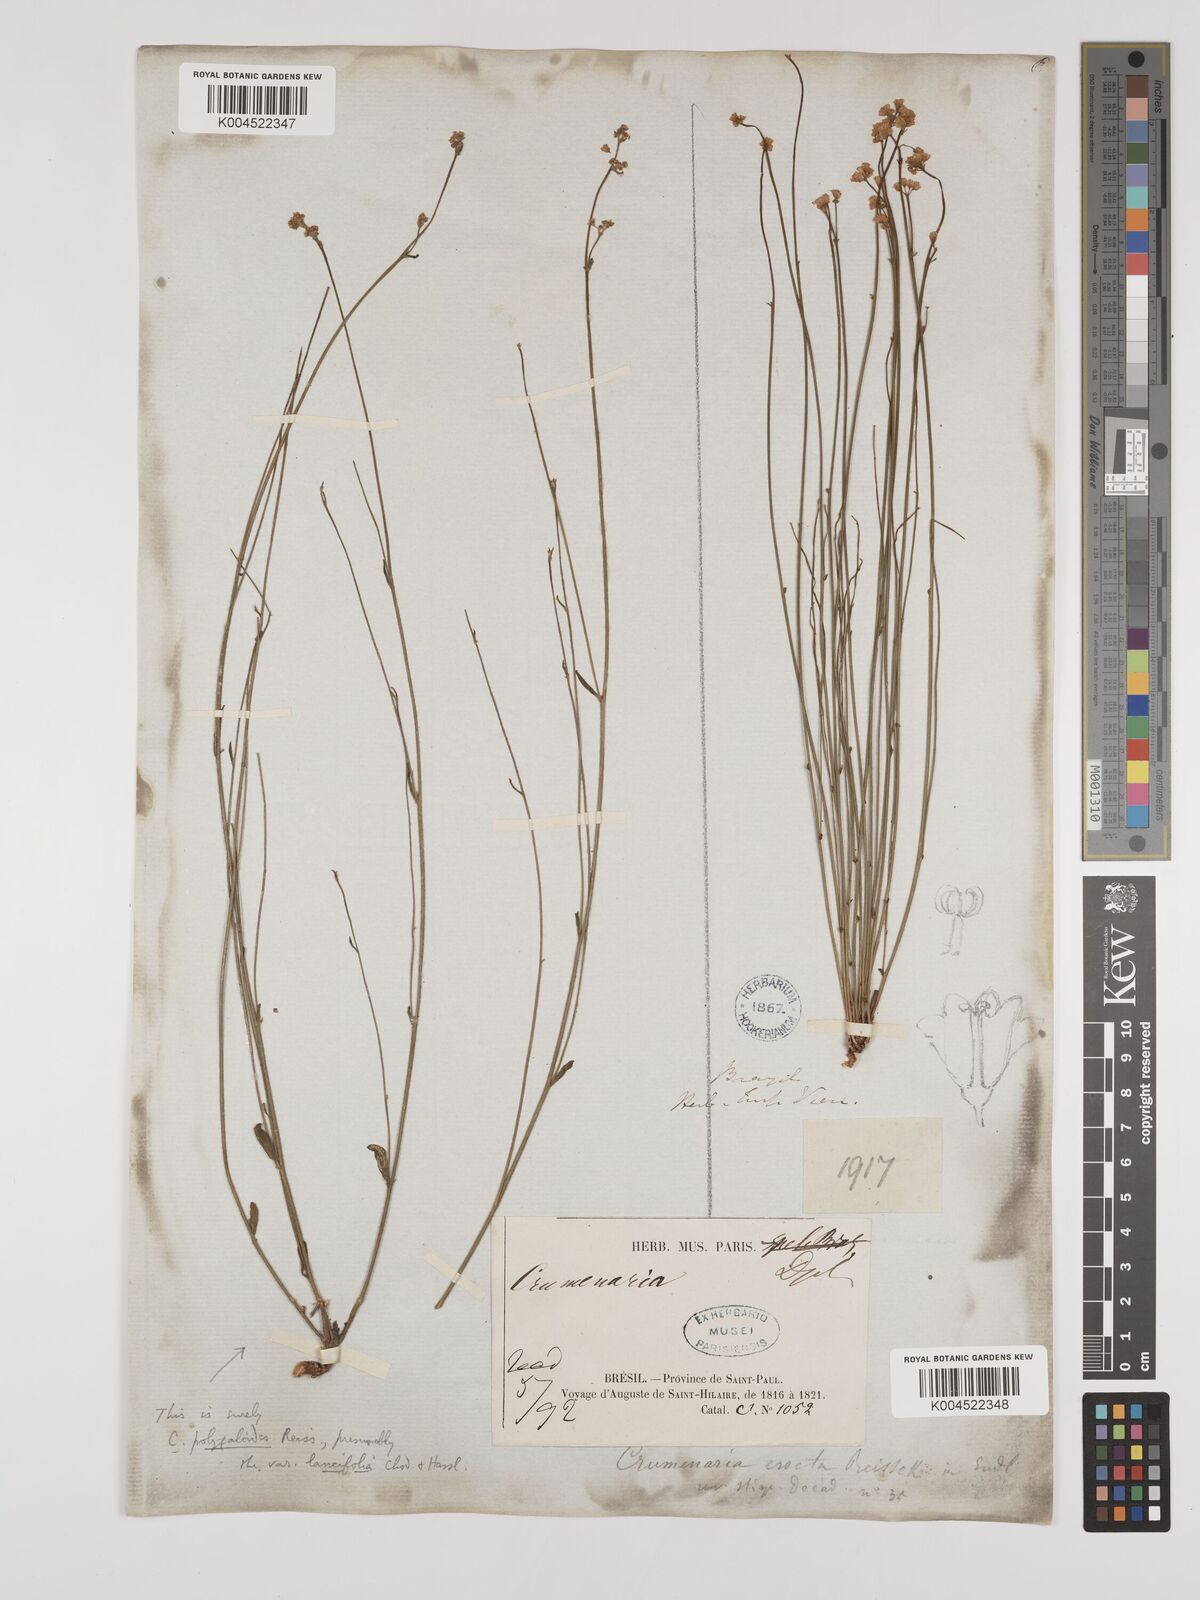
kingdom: Plantae
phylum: Tracheophyta
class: Magnoliopsida
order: Rosales
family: Rhamnaceae
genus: Crumenaria
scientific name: Crumenaria erecta
